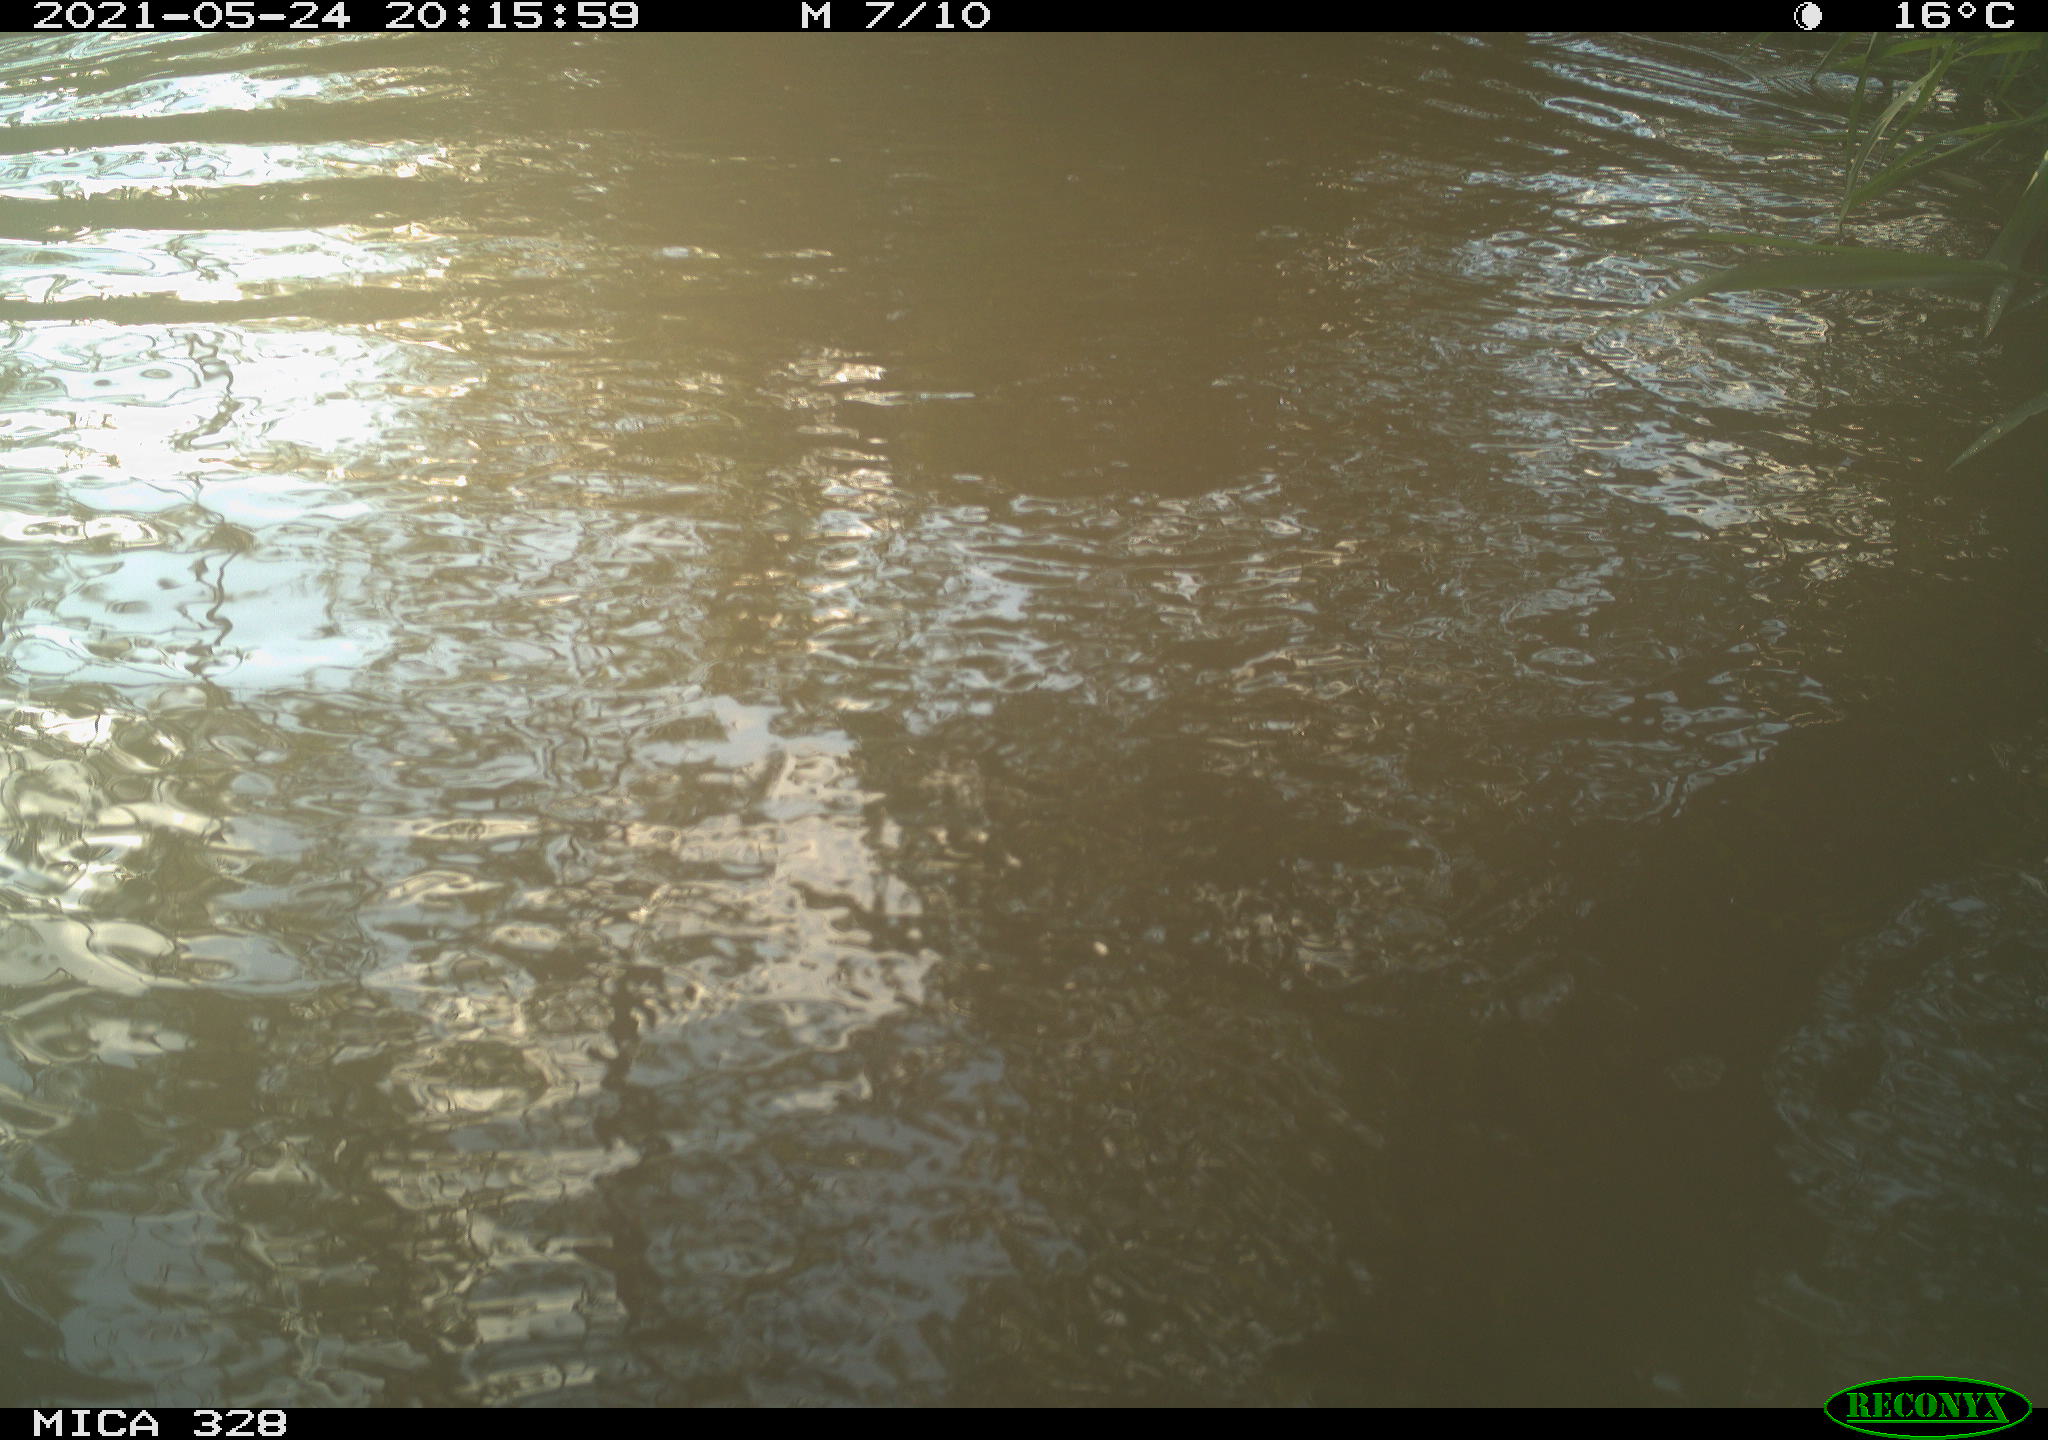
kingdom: Animalia
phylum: Chordata
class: Aves
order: Anseriformes
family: Anatidae
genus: Aix
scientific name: Aix galericulata
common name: Mandarin duck
